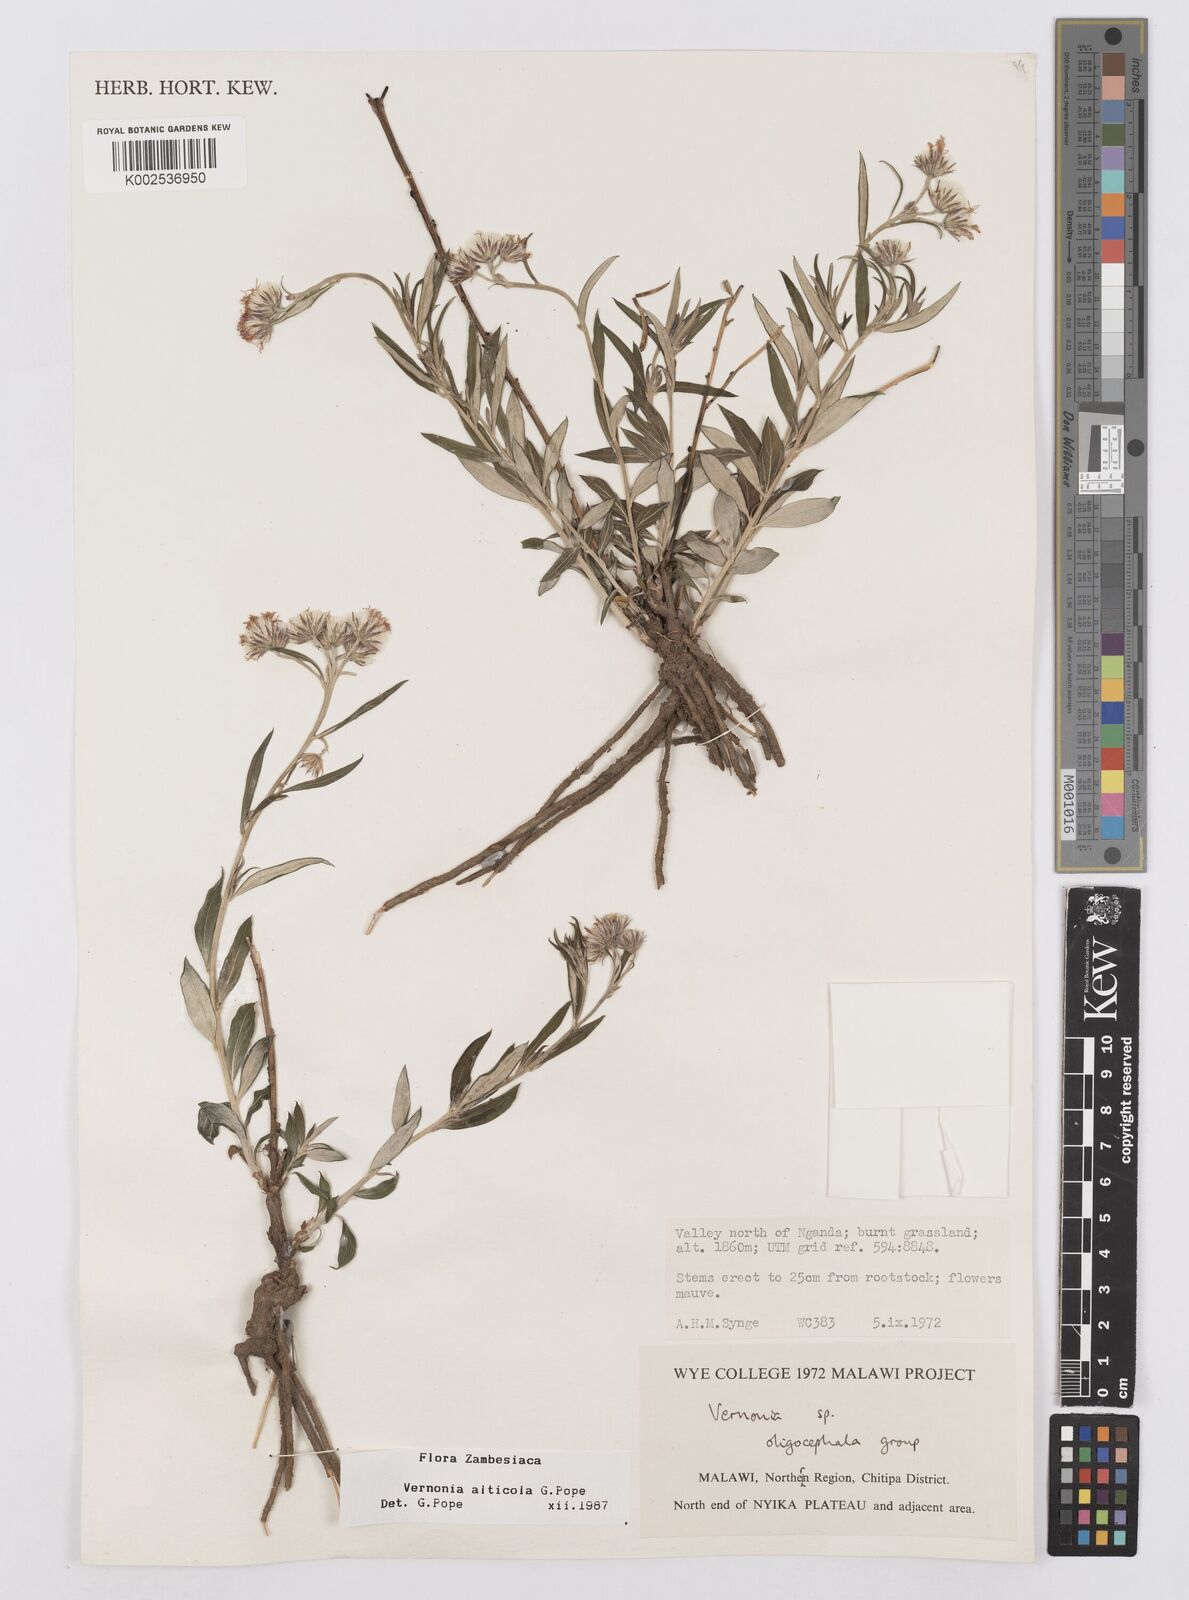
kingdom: Plantae
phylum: Tracheophyta
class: Magnoliopsida
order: Asterales
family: Asteraceae
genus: Vernonia
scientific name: Vernonia alticola
